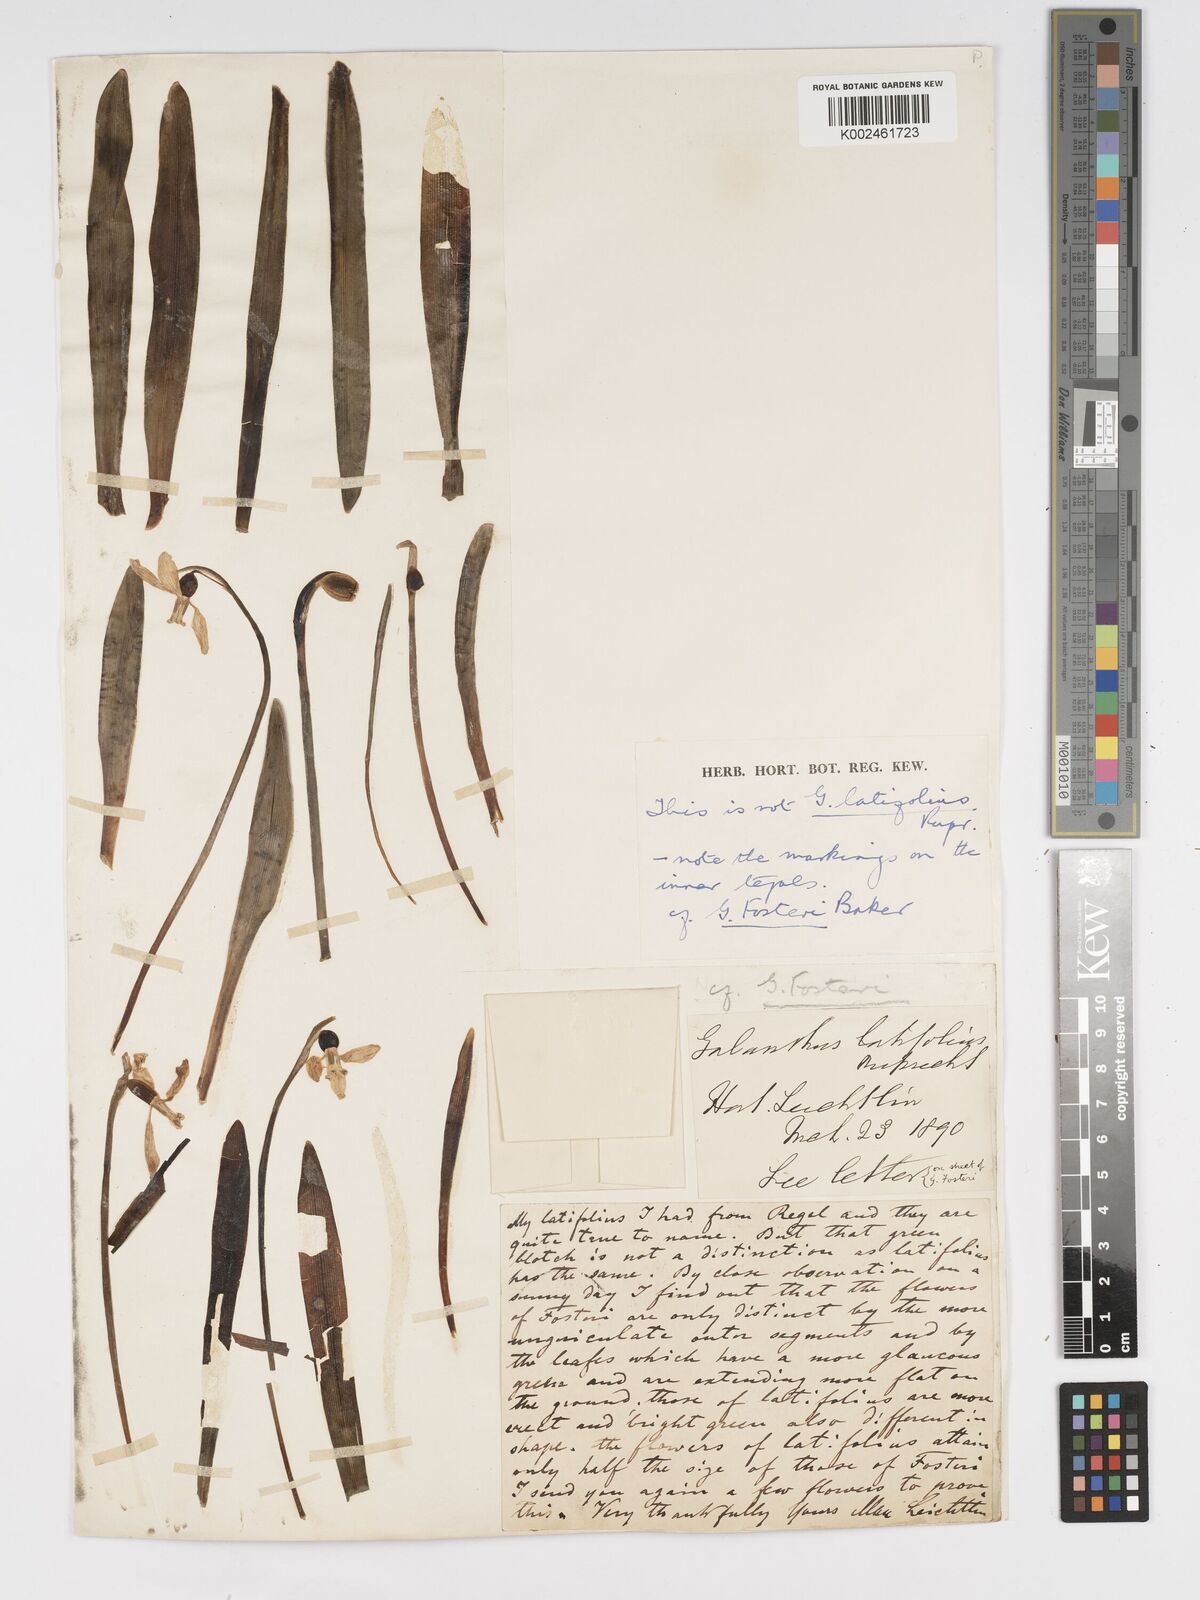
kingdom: Plantae
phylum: Tracheophyta
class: Liliopsida
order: Asparagales
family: Amaryllidaceae
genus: Galanthus
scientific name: Galanthus fosteri
